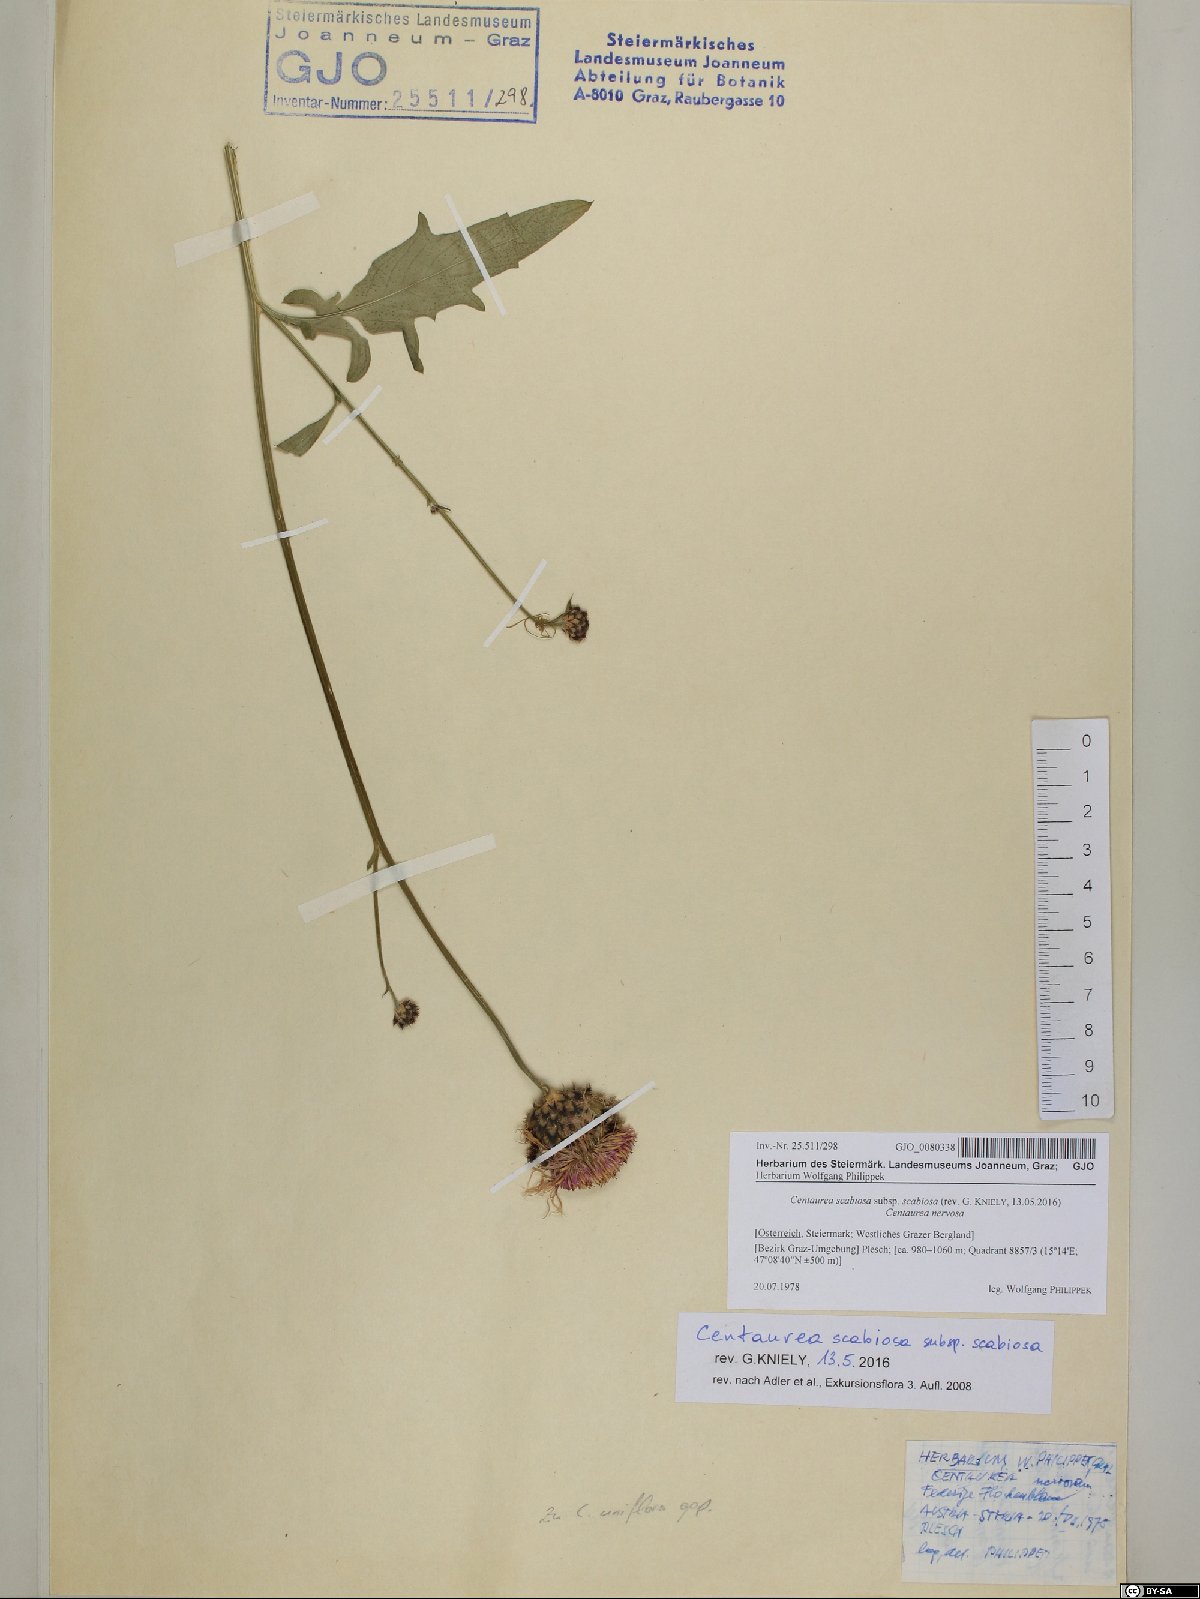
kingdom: Plantae
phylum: Tracheophyta
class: Magnoliopsida
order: Asterales
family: Asteraceae
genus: Centaurea
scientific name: Centaurea scabiosa
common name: Greater knapweed
